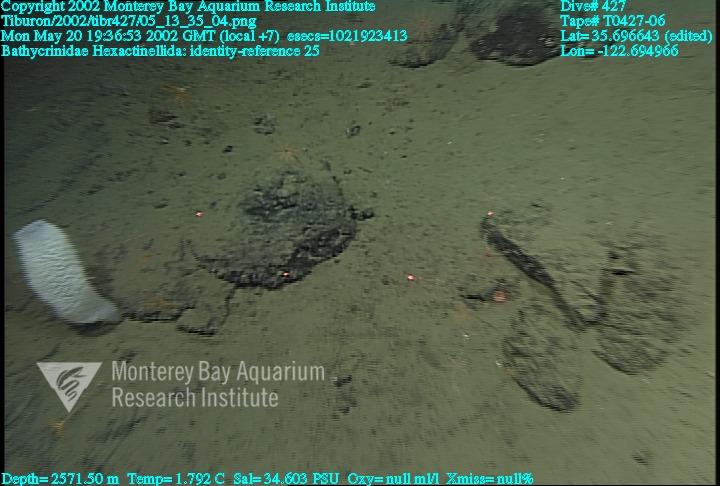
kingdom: Animalia
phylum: Porifera
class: Hexactinellida
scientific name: Hexactinellida
